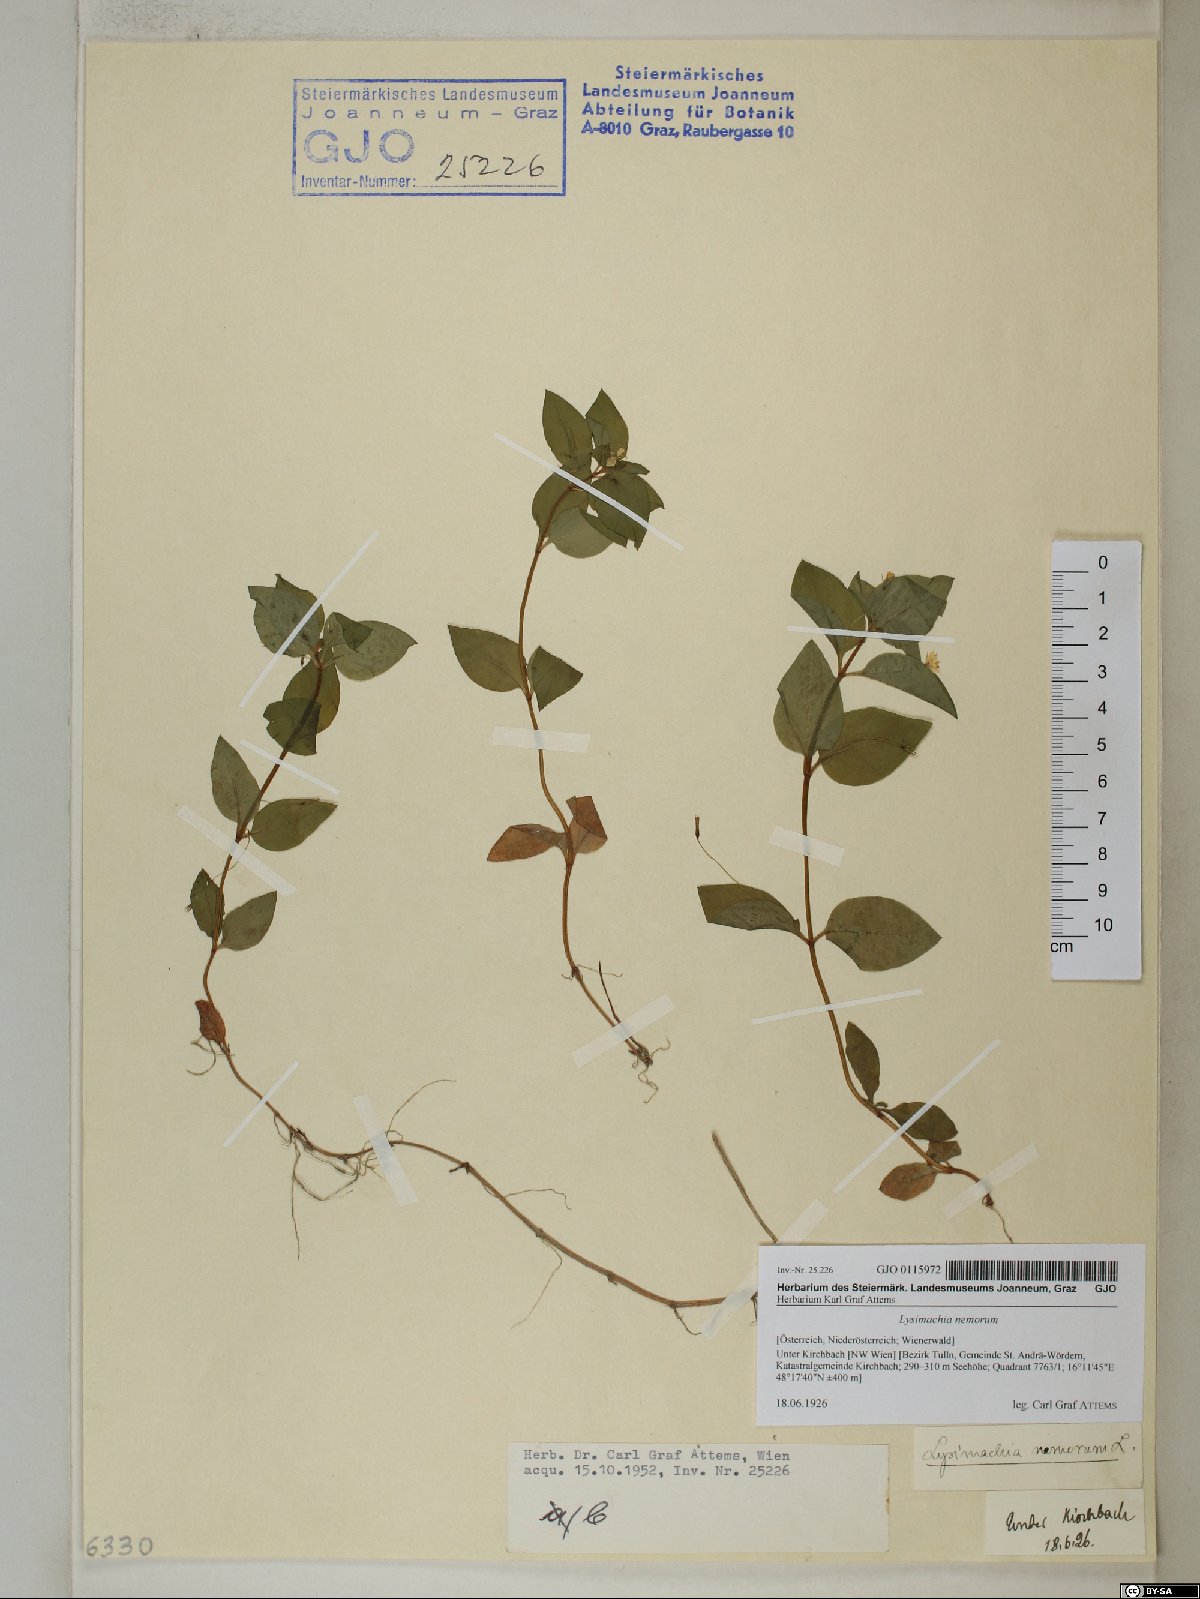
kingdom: Plantae
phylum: Tracheophyta
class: Magnoliopsida
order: Ericales
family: Primulaceae
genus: Lysimachia
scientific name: Lysimachia nemorum
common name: Yellow pimpernel
